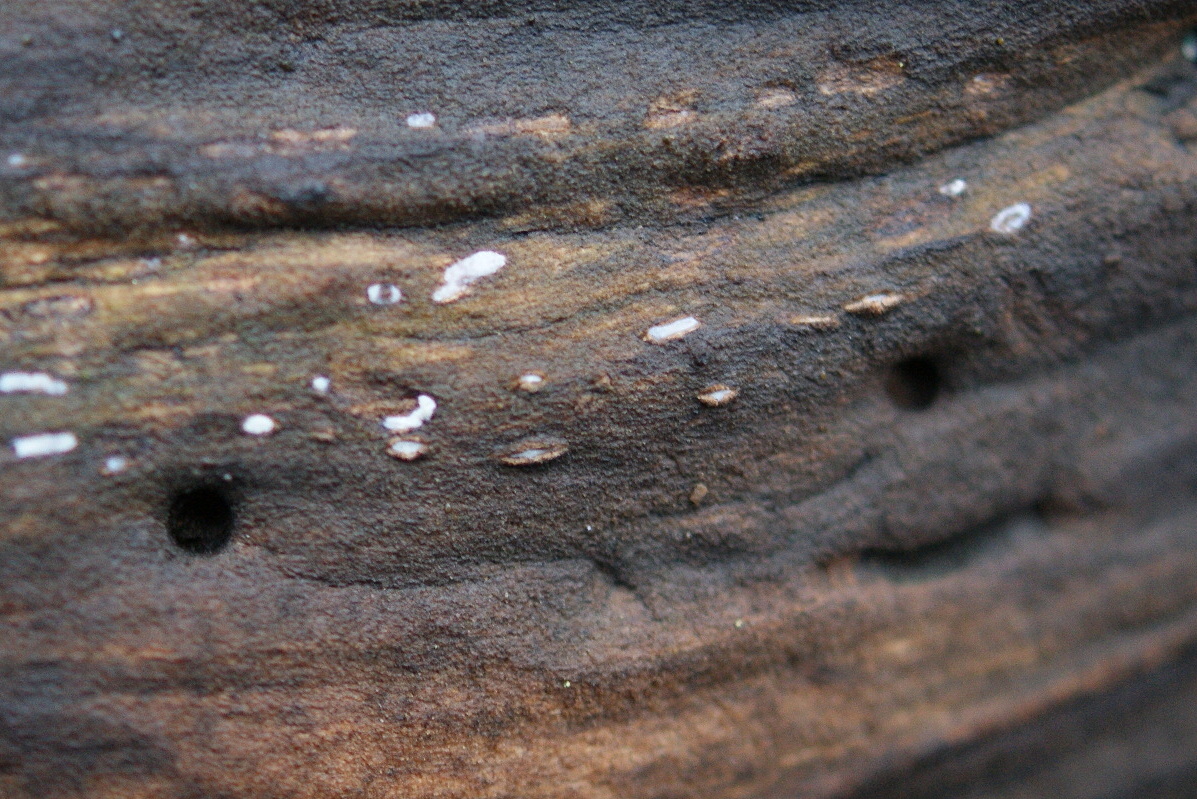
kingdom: Fungi
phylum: Ascomycota
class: Leotiomycetes
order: Chaetomellales
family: Marthamycetaceae
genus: Propolis
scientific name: Propolis farinosa
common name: almindelig vedsprængerskive
